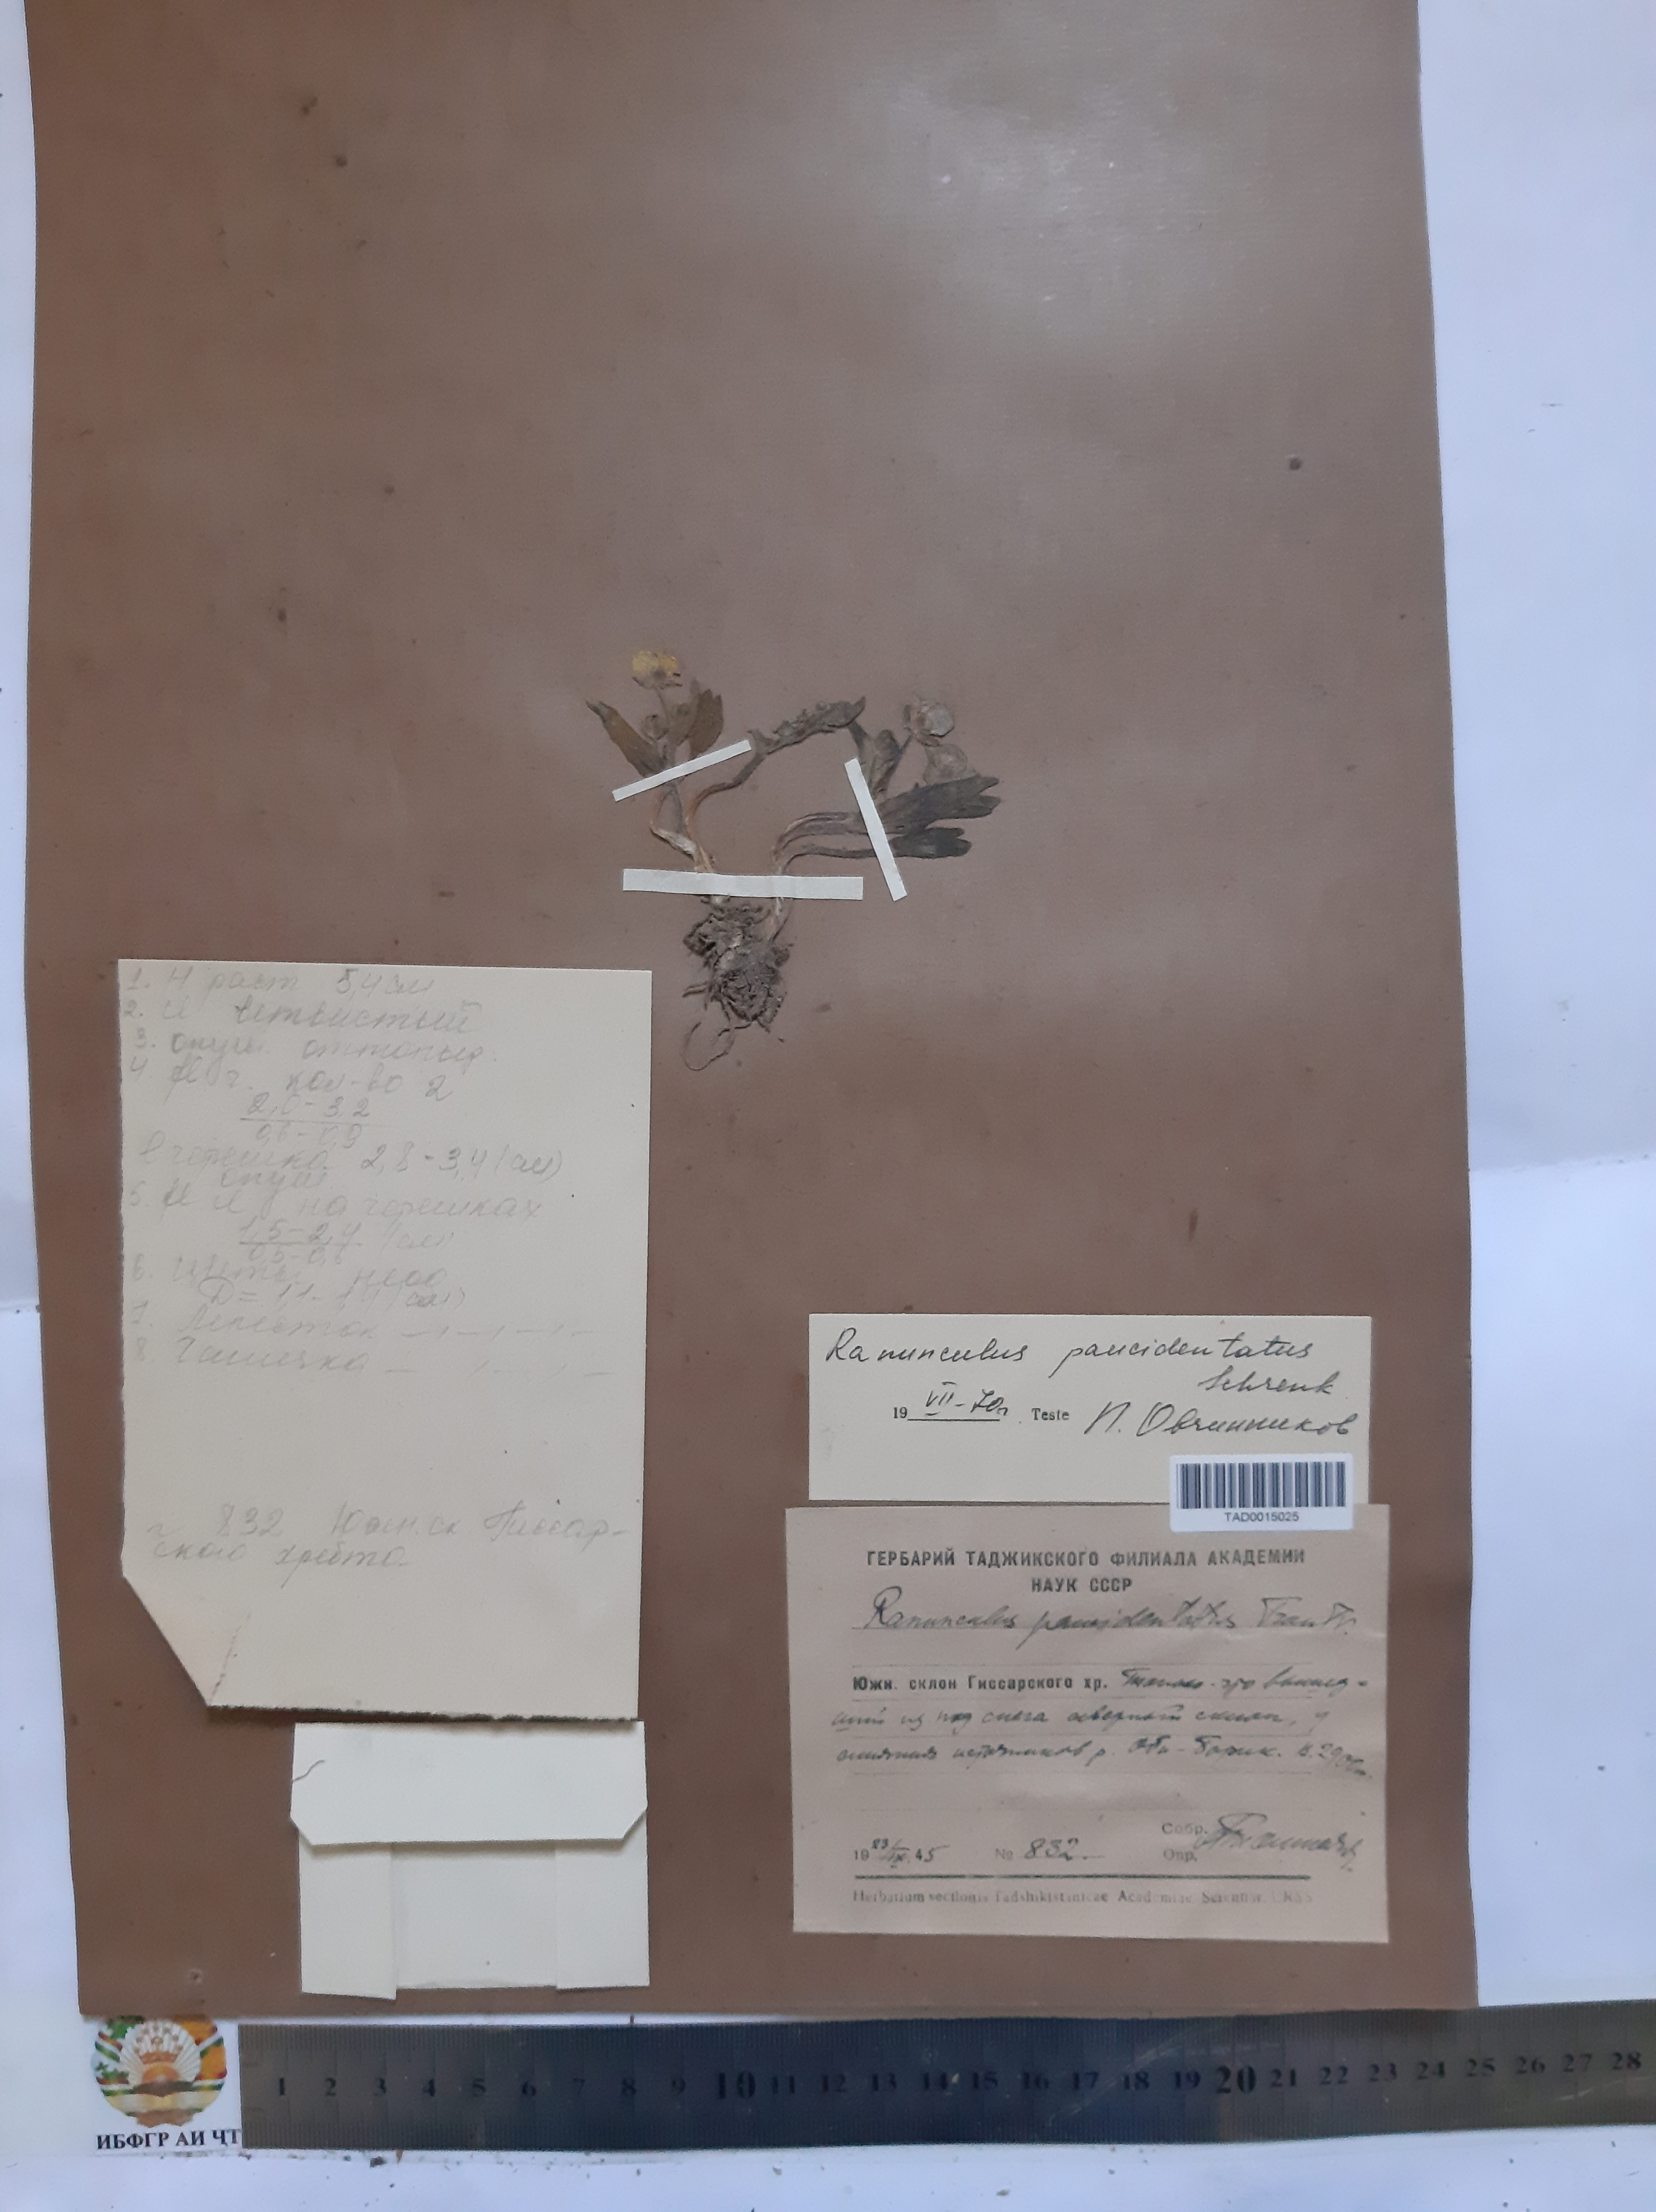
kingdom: Plantae
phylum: Tracheophyta
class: Magnoliopsida
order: Ranunculales
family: Ranunculaceae
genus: Ranunculus
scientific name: Ranunculus paucidentatus
